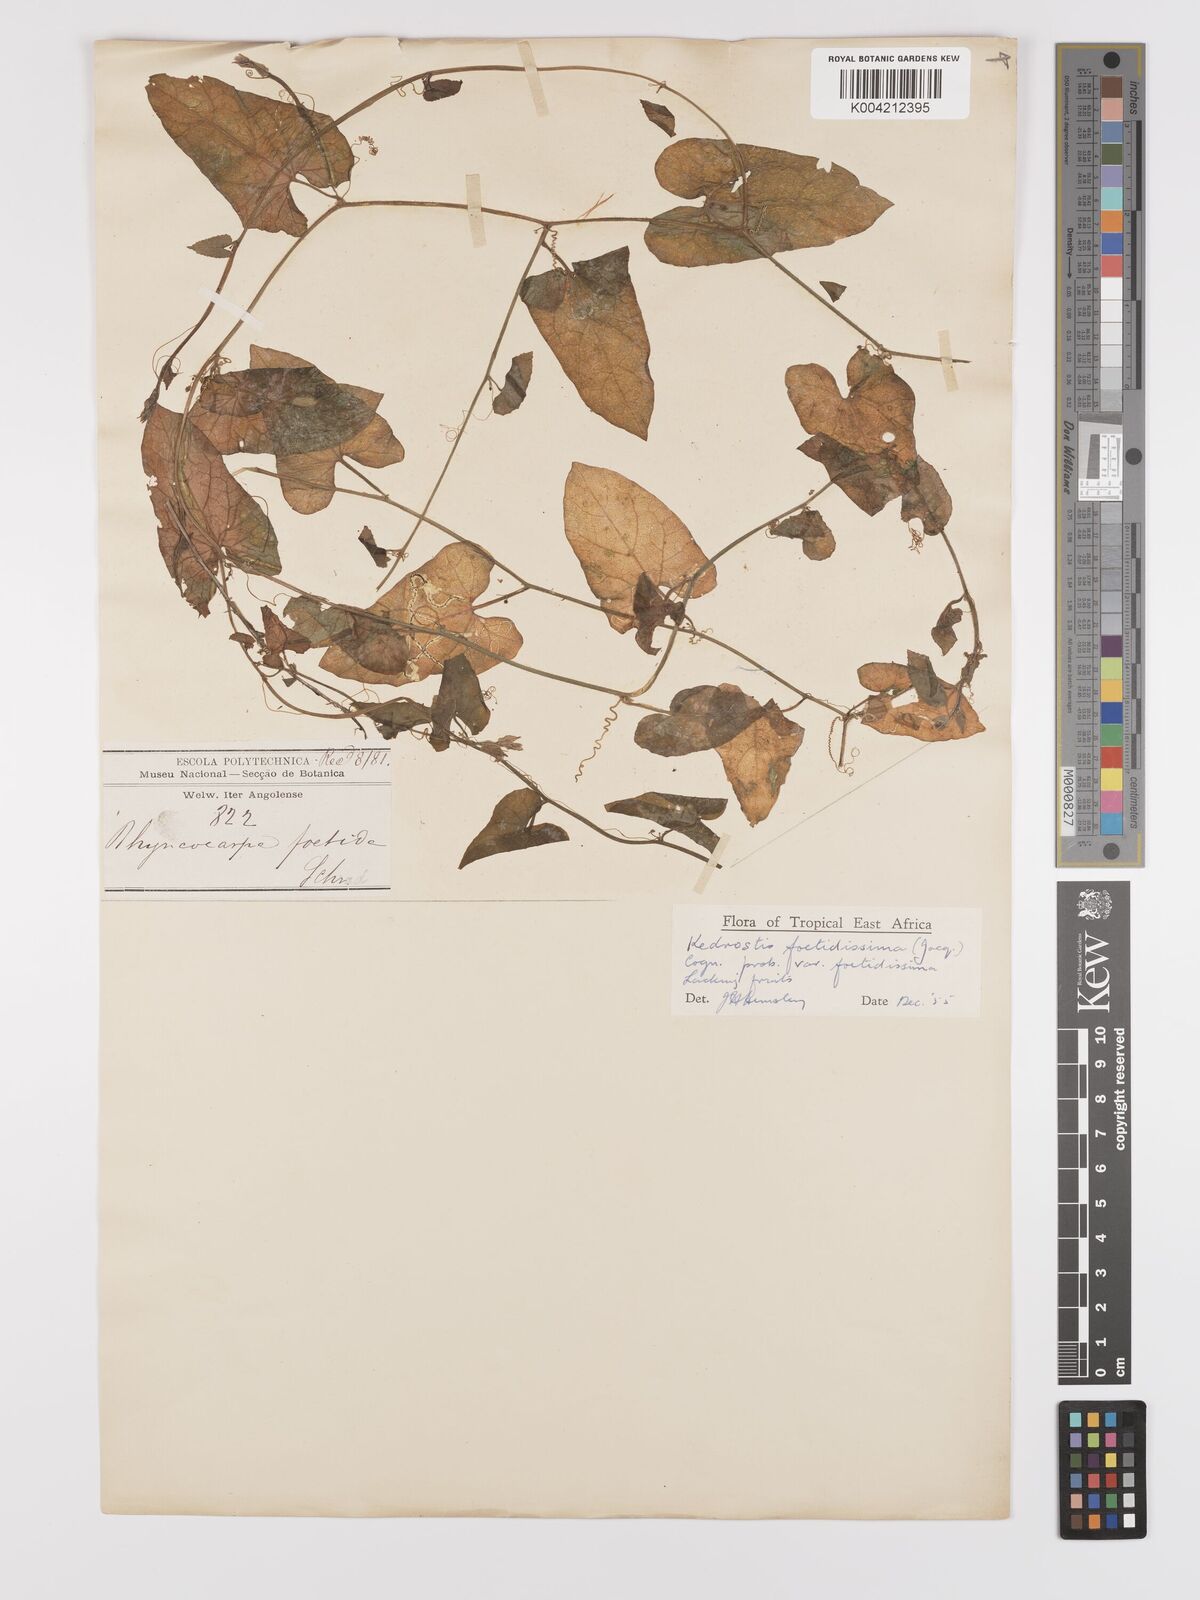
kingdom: Plantae
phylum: Tracheophyta
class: Magnoliopsida
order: Cucurbitales
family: Cucurbitaceae
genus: Kedrostis
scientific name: Kedrostis foetidissima
